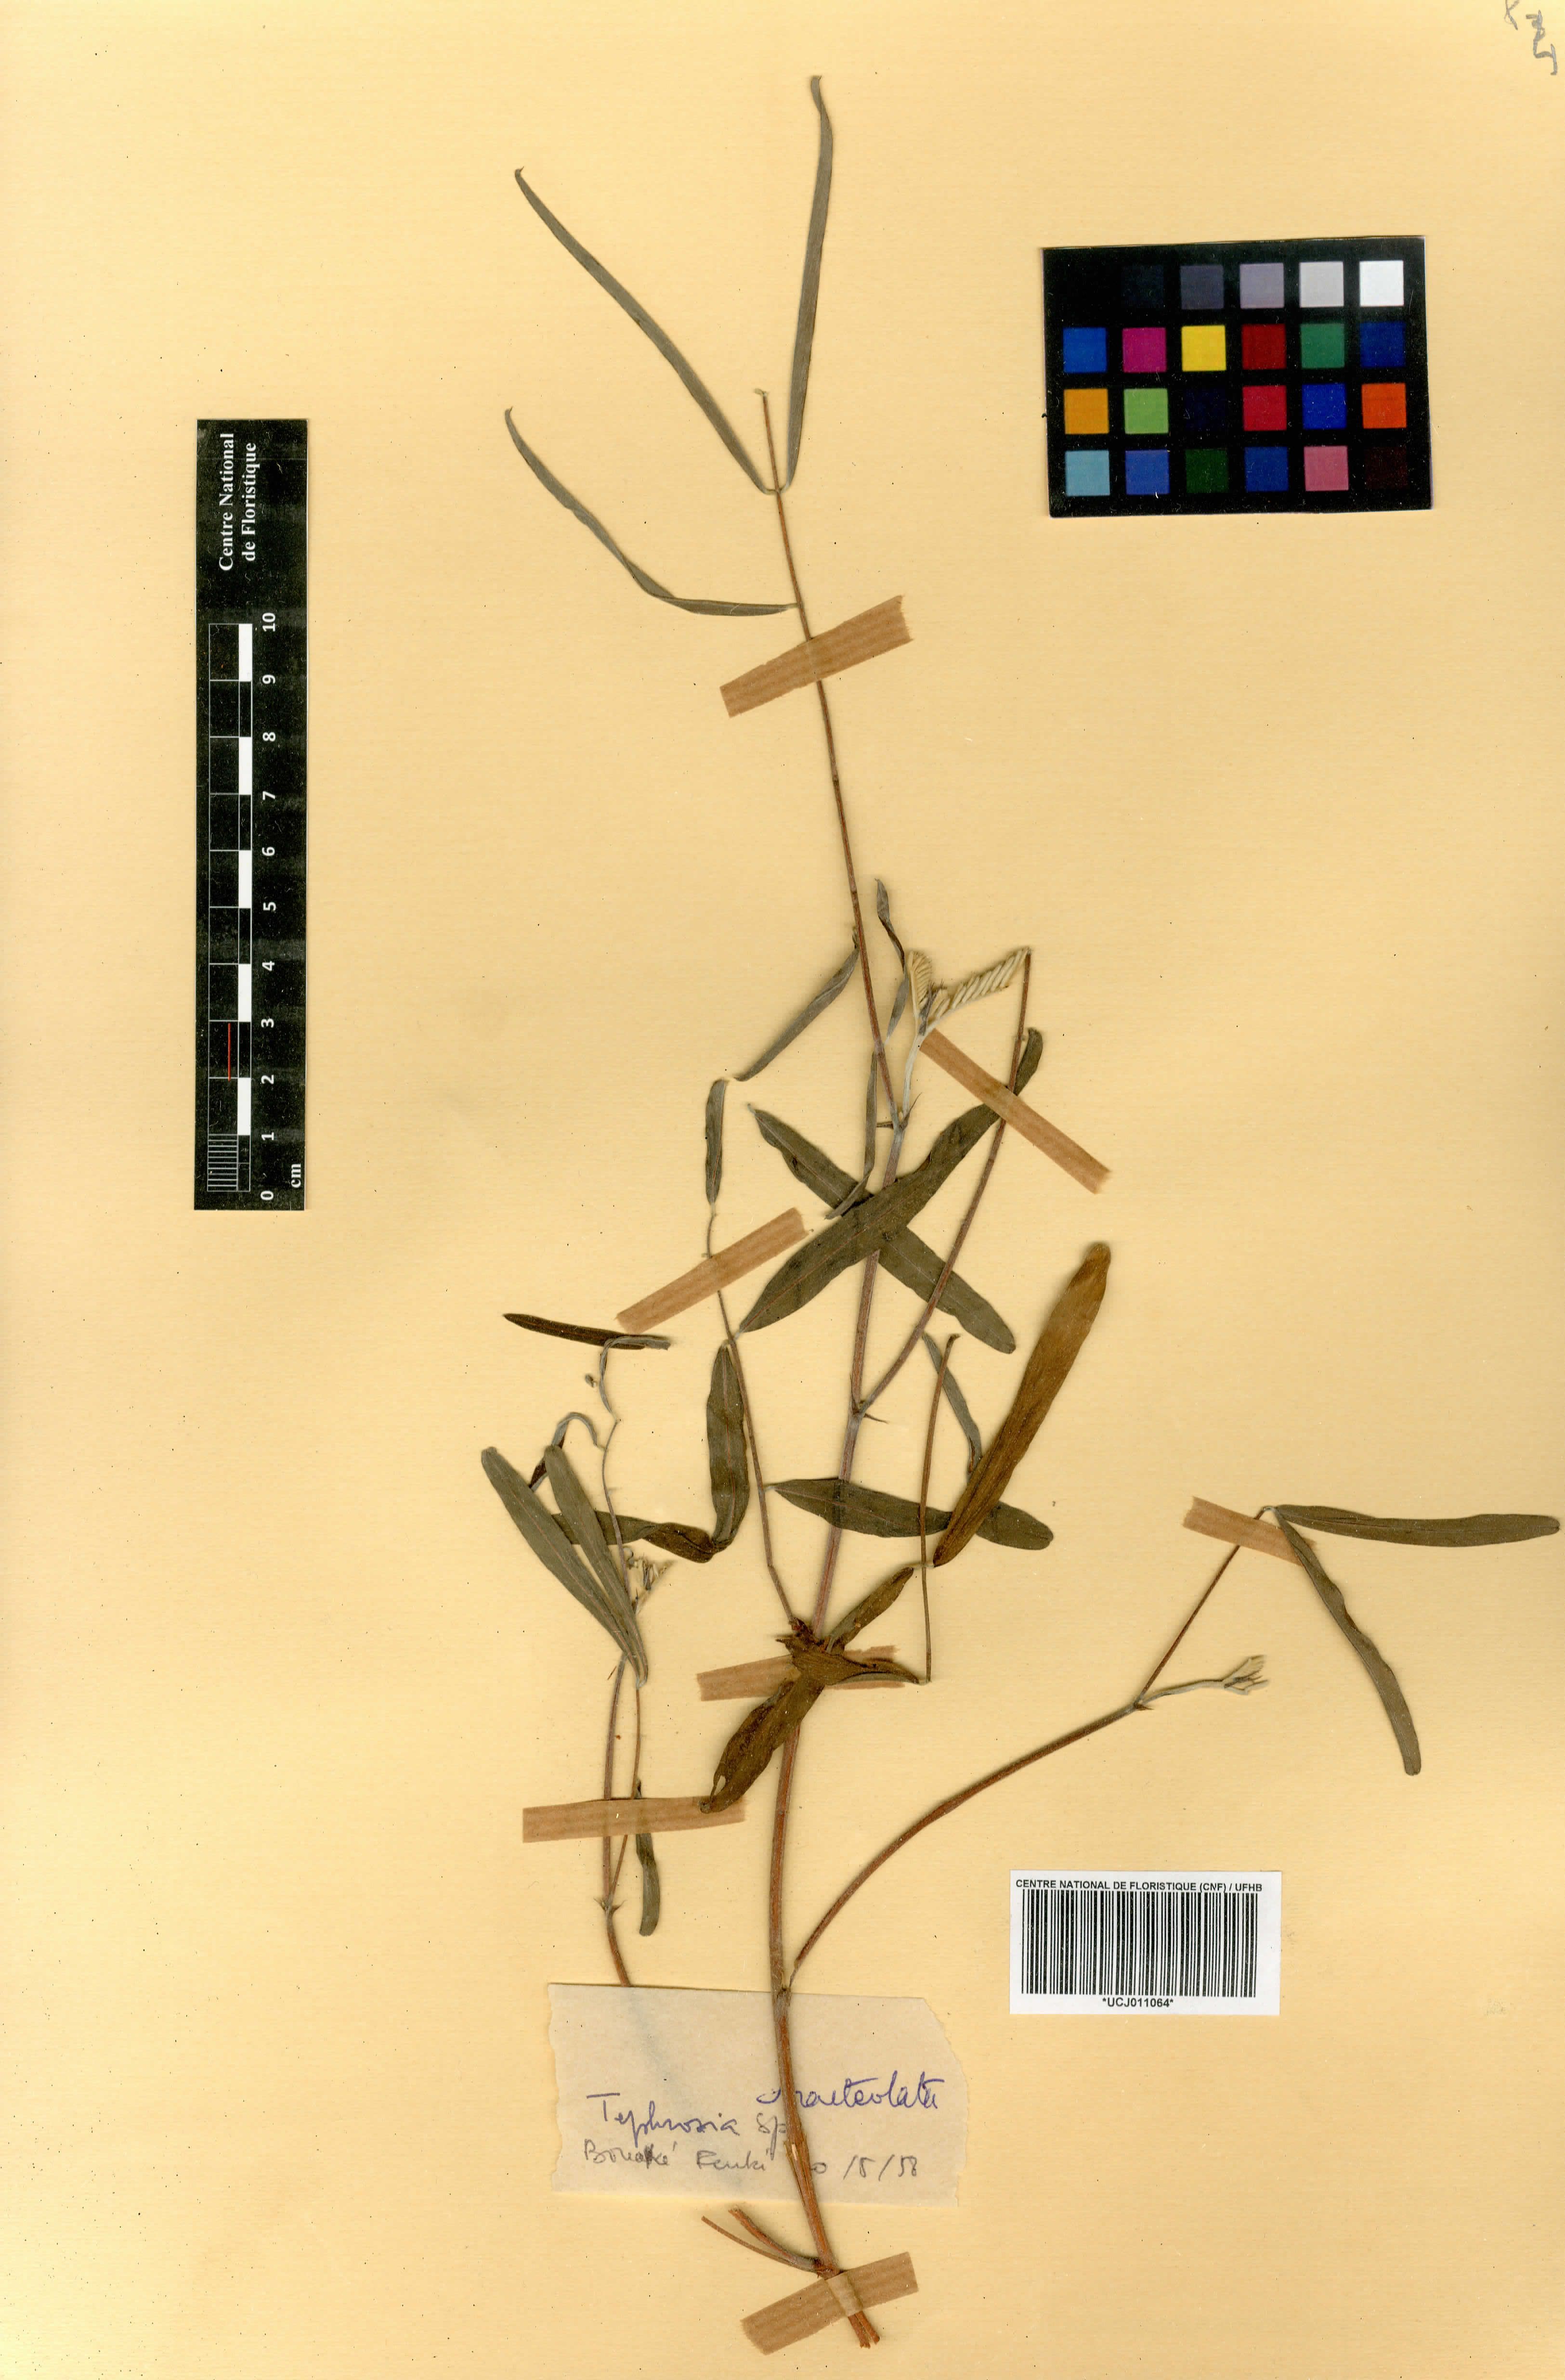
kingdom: Plantae
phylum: Tracheophyta
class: Magnoliopsida
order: Fabales
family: Fabaceae
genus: Tephrosia
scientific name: Tephrosia bracteolata
